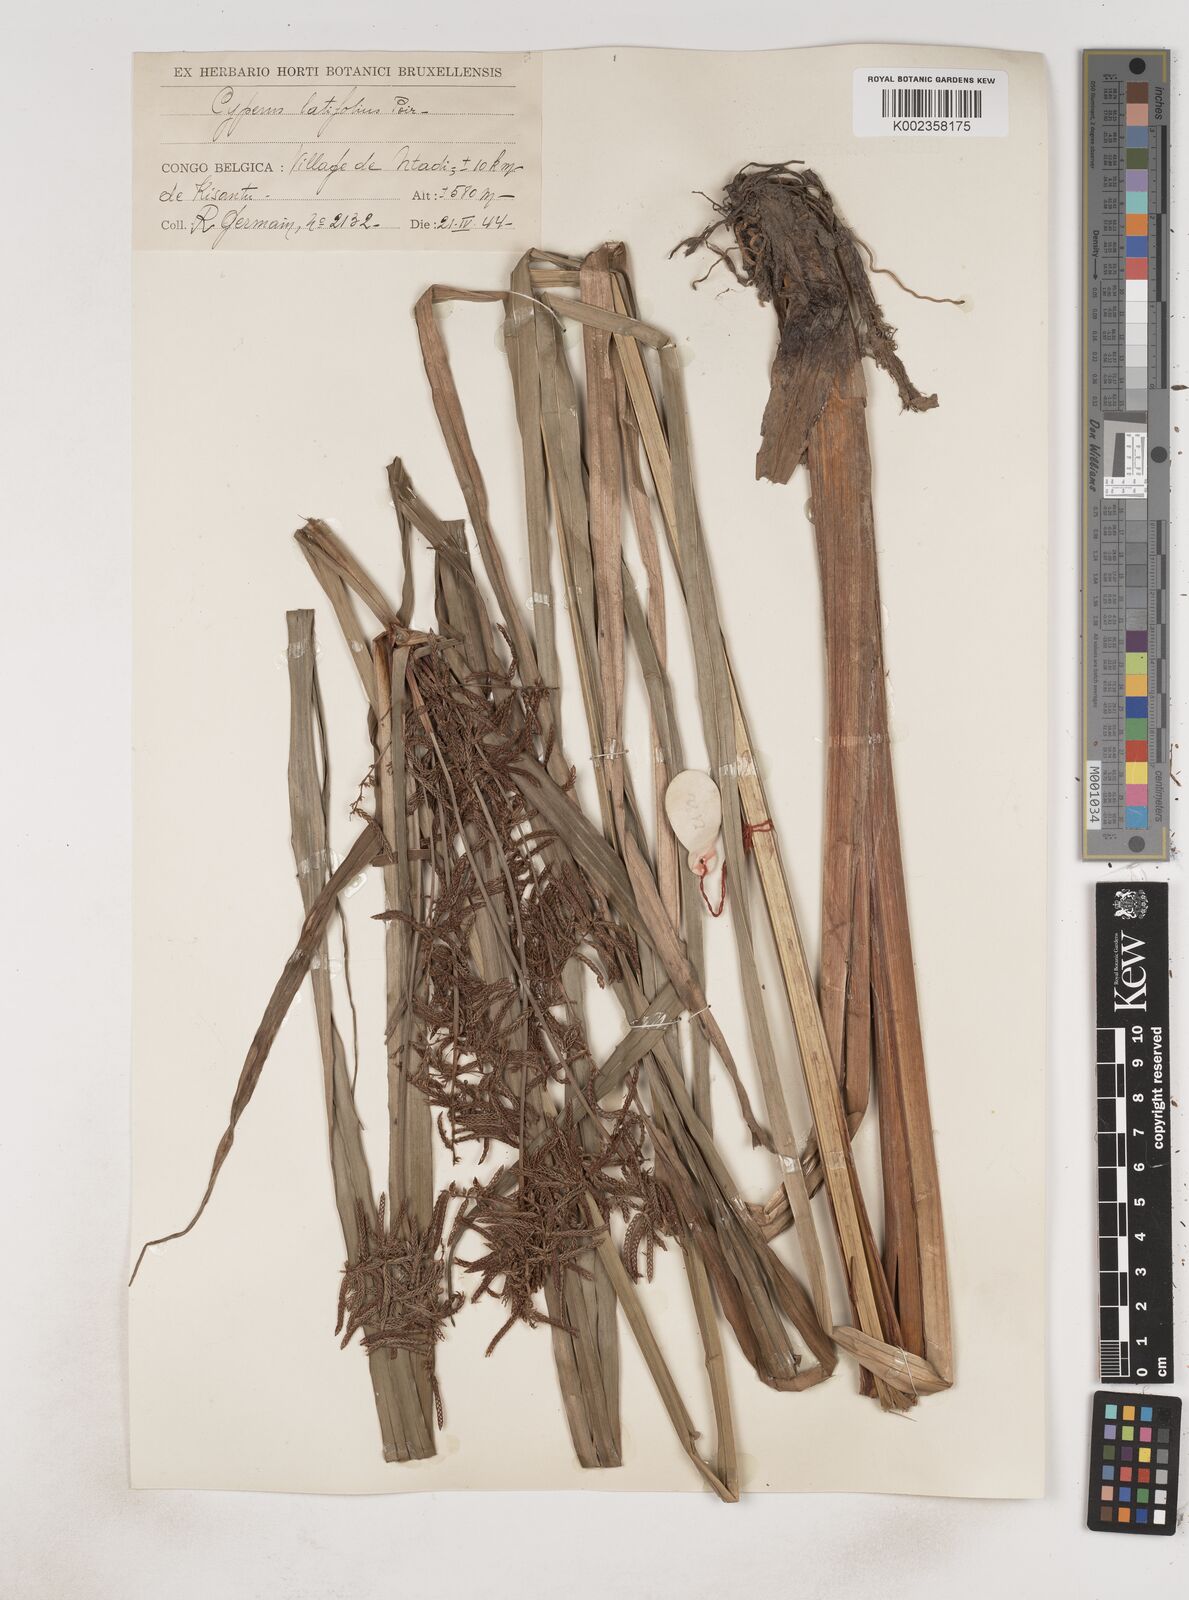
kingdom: Plantae
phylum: Tracheophyta
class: Liliopsida
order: Poales
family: Cyperaceae
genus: Cyperus
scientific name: Cyperus latifolius
